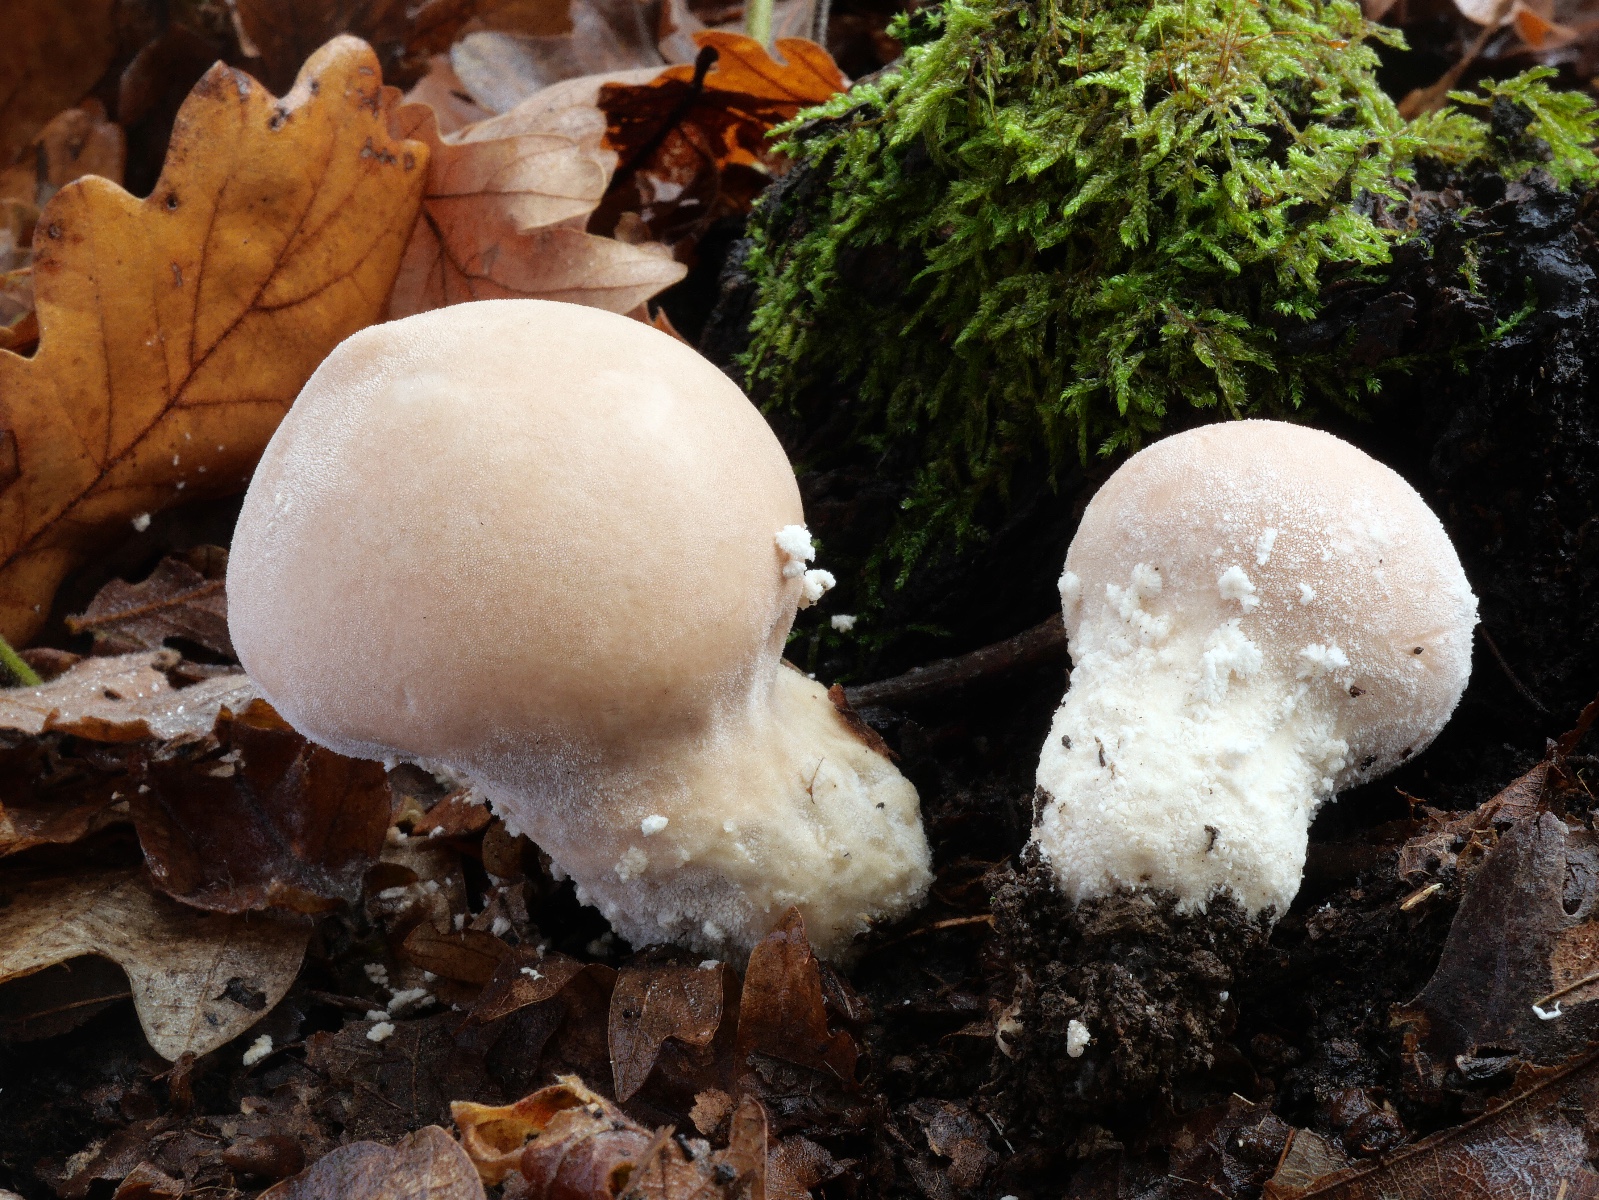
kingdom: Fungi
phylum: Basidiomycota
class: Agaricomycetes
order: Agaricales
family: Lycoperdaceae
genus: Lycoperdon
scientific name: Lycoperdon mammiforme
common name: rosa støvbold
